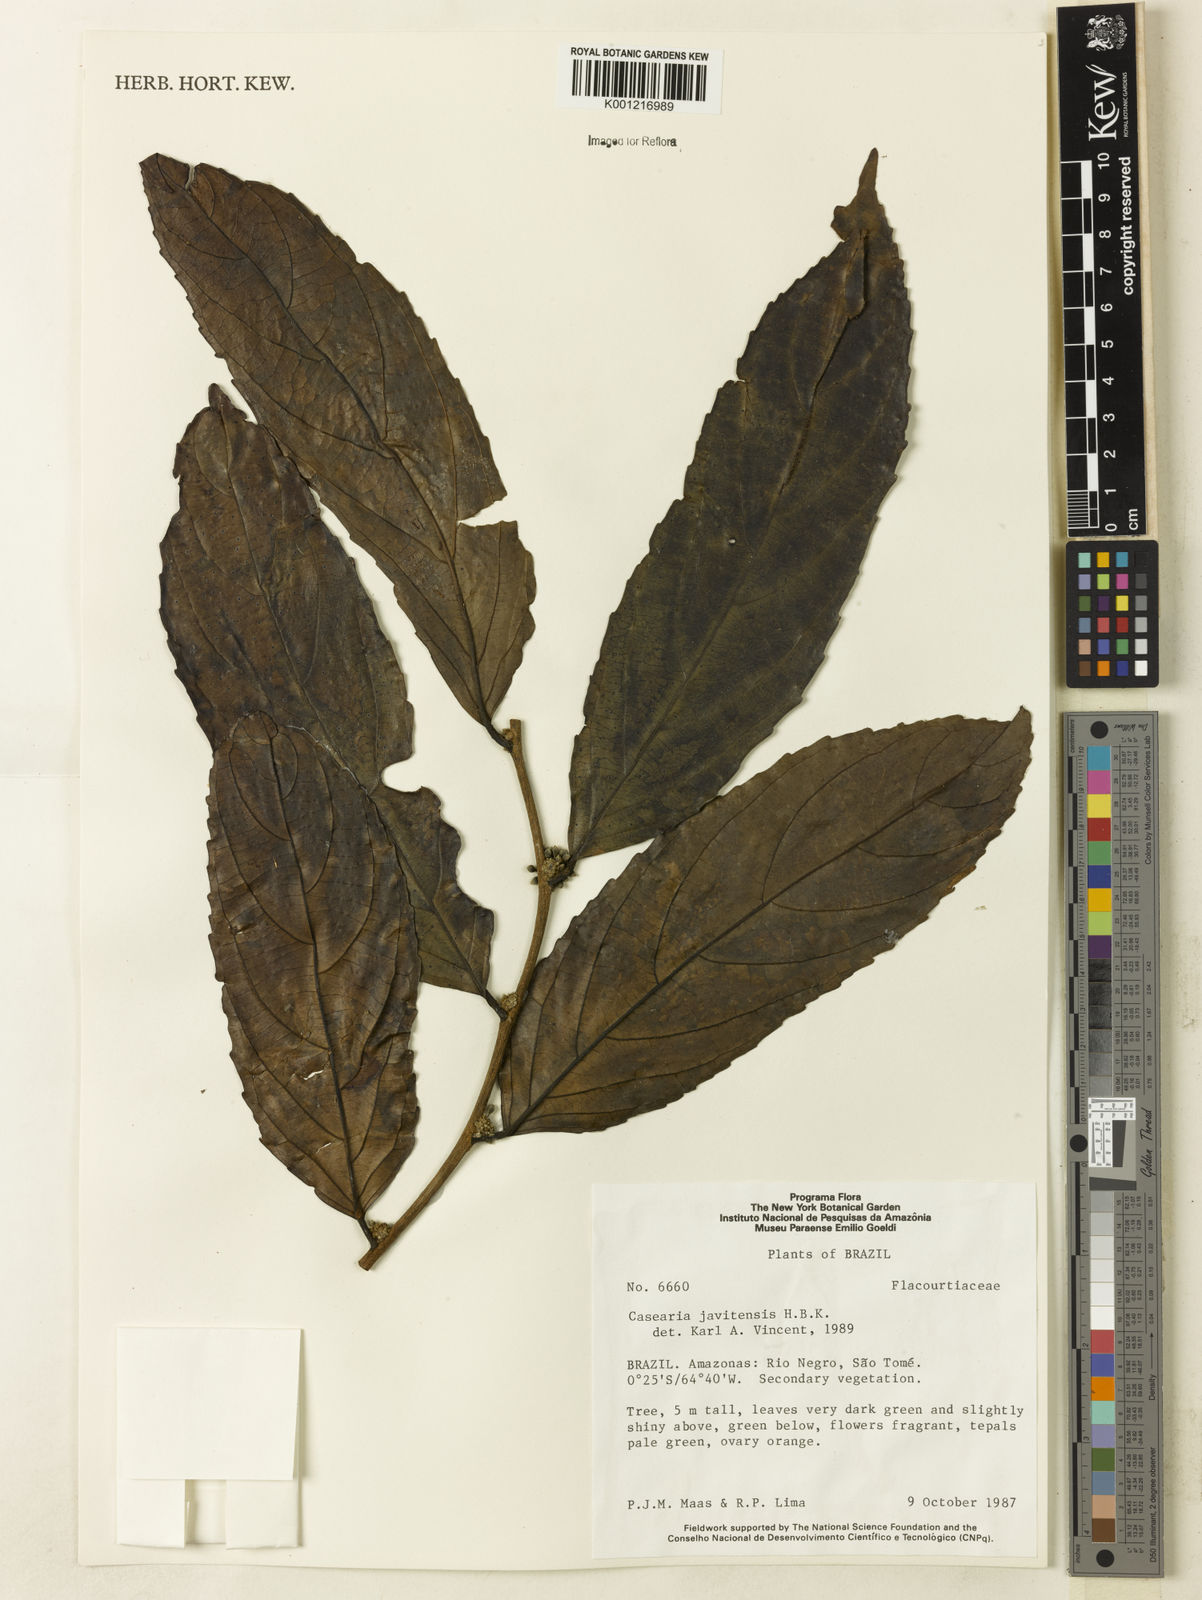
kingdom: Plantae
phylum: Tracheophyta
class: Magnoliopsida
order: Malpighiales
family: Salicaceae
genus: Piparea
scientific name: Piparea multiflora
